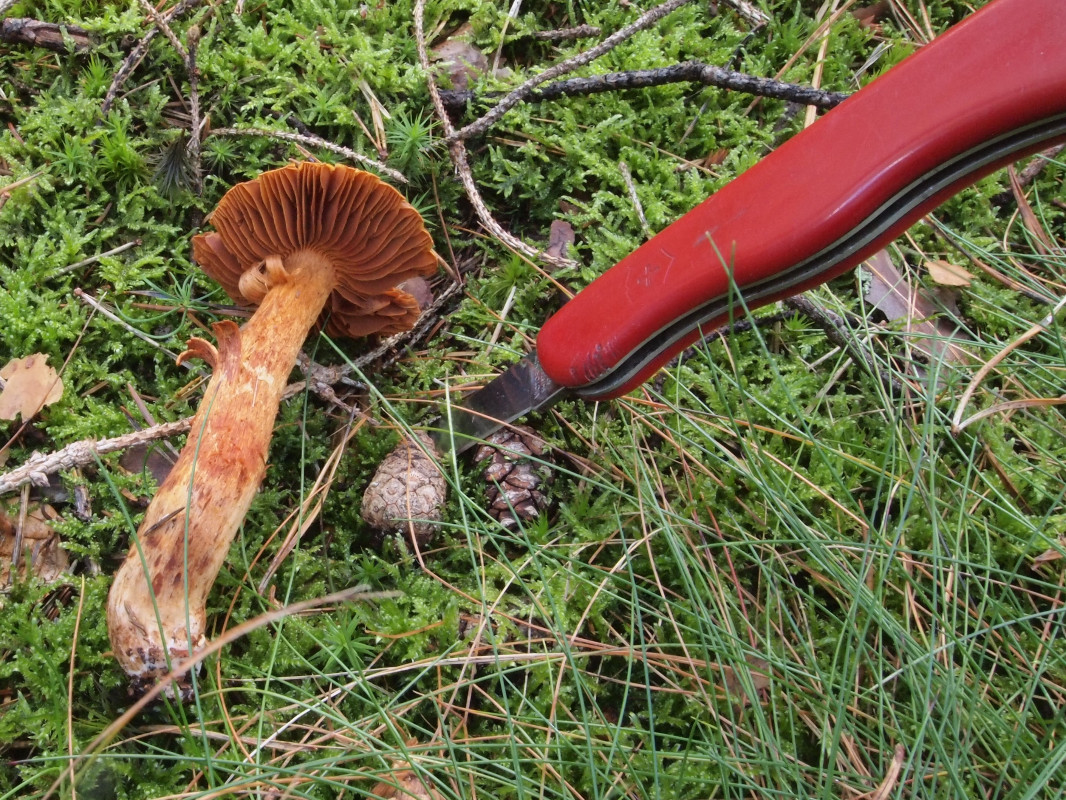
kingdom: Fungi
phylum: Basidiomycota
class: Agaricomycetes
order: Agaricales
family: Cortinariaceae
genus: Cortinarius
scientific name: Cortinarius rubellus
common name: puklet gift-slørhat
